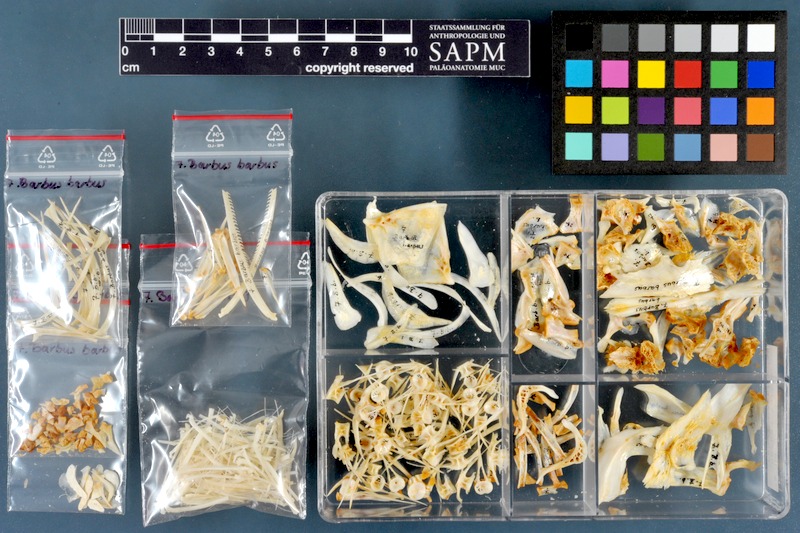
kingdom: Animalia
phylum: Chordata
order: Cypriniformes
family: Cyprinidae
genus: Barbus
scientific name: Barbus barbus
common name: Barbel
